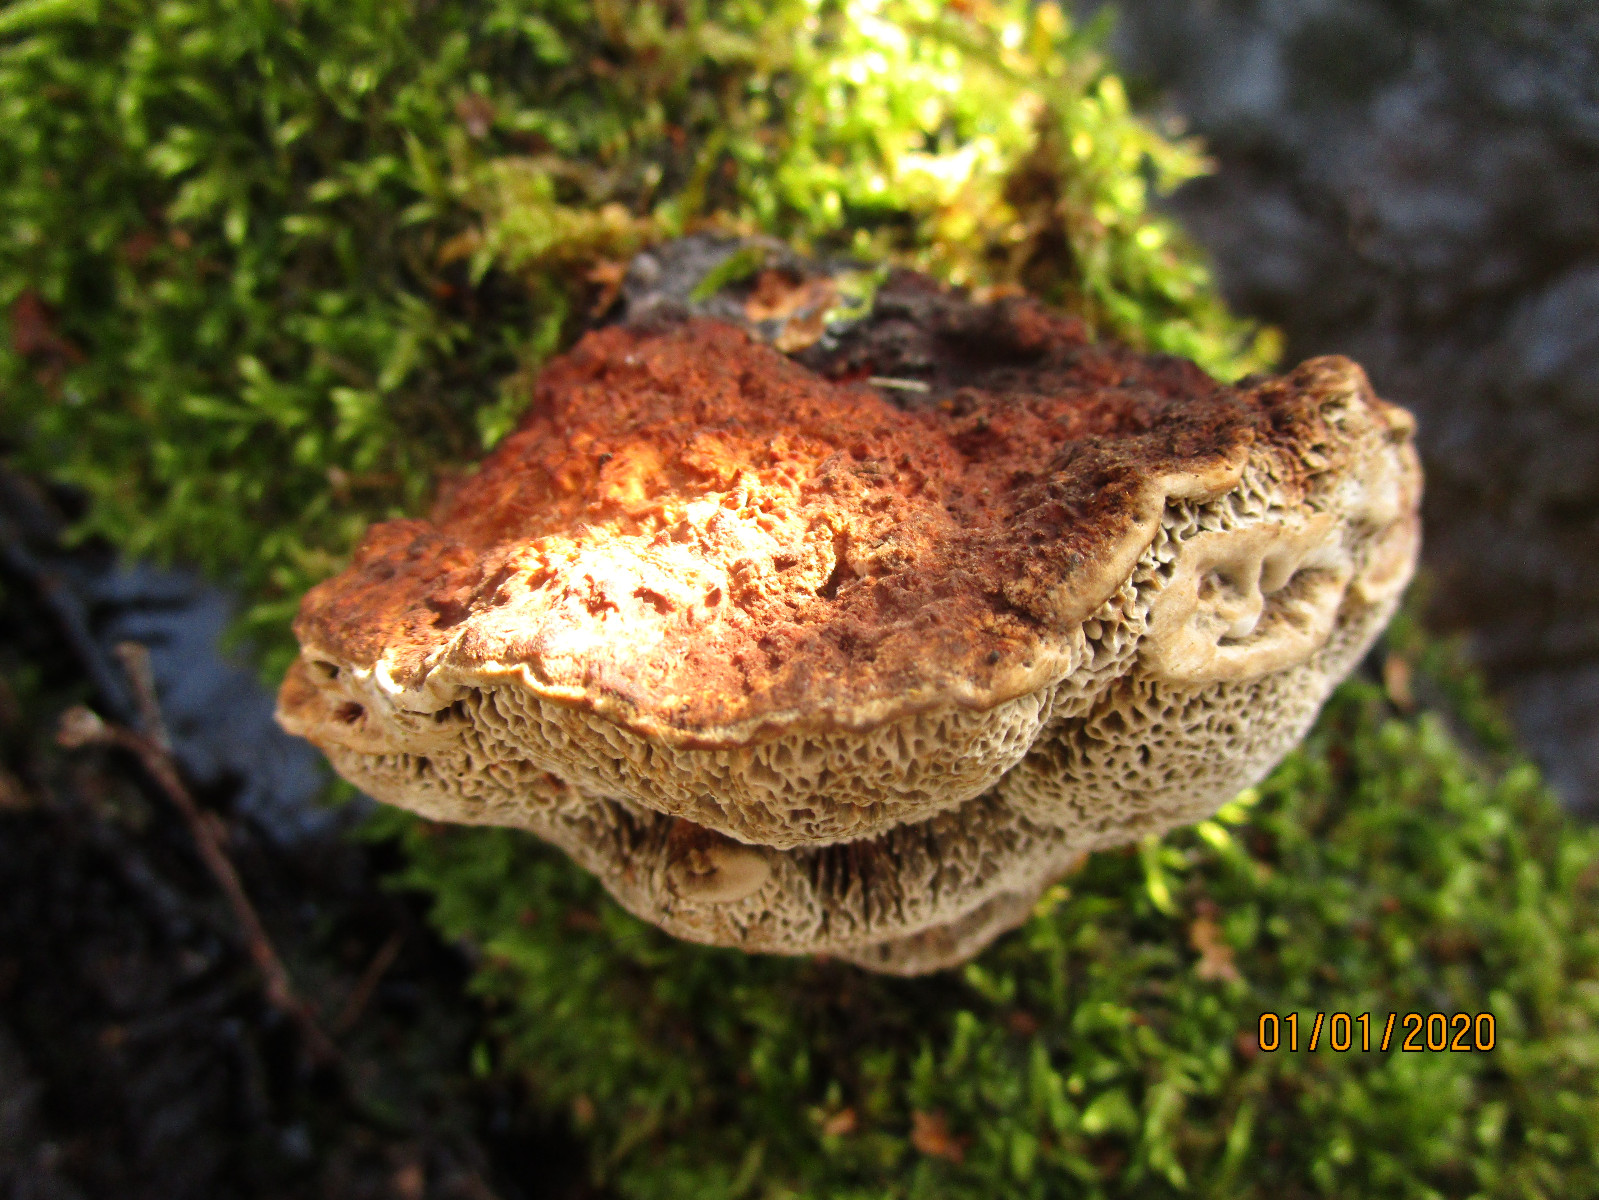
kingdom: Fungi
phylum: Basidiomycota
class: Agaricomycetes
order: Polyporales
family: Polyporaceae
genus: Daedaleopsis
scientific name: Daedaleopsis confragosa
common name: rødmende læderporesvamp
